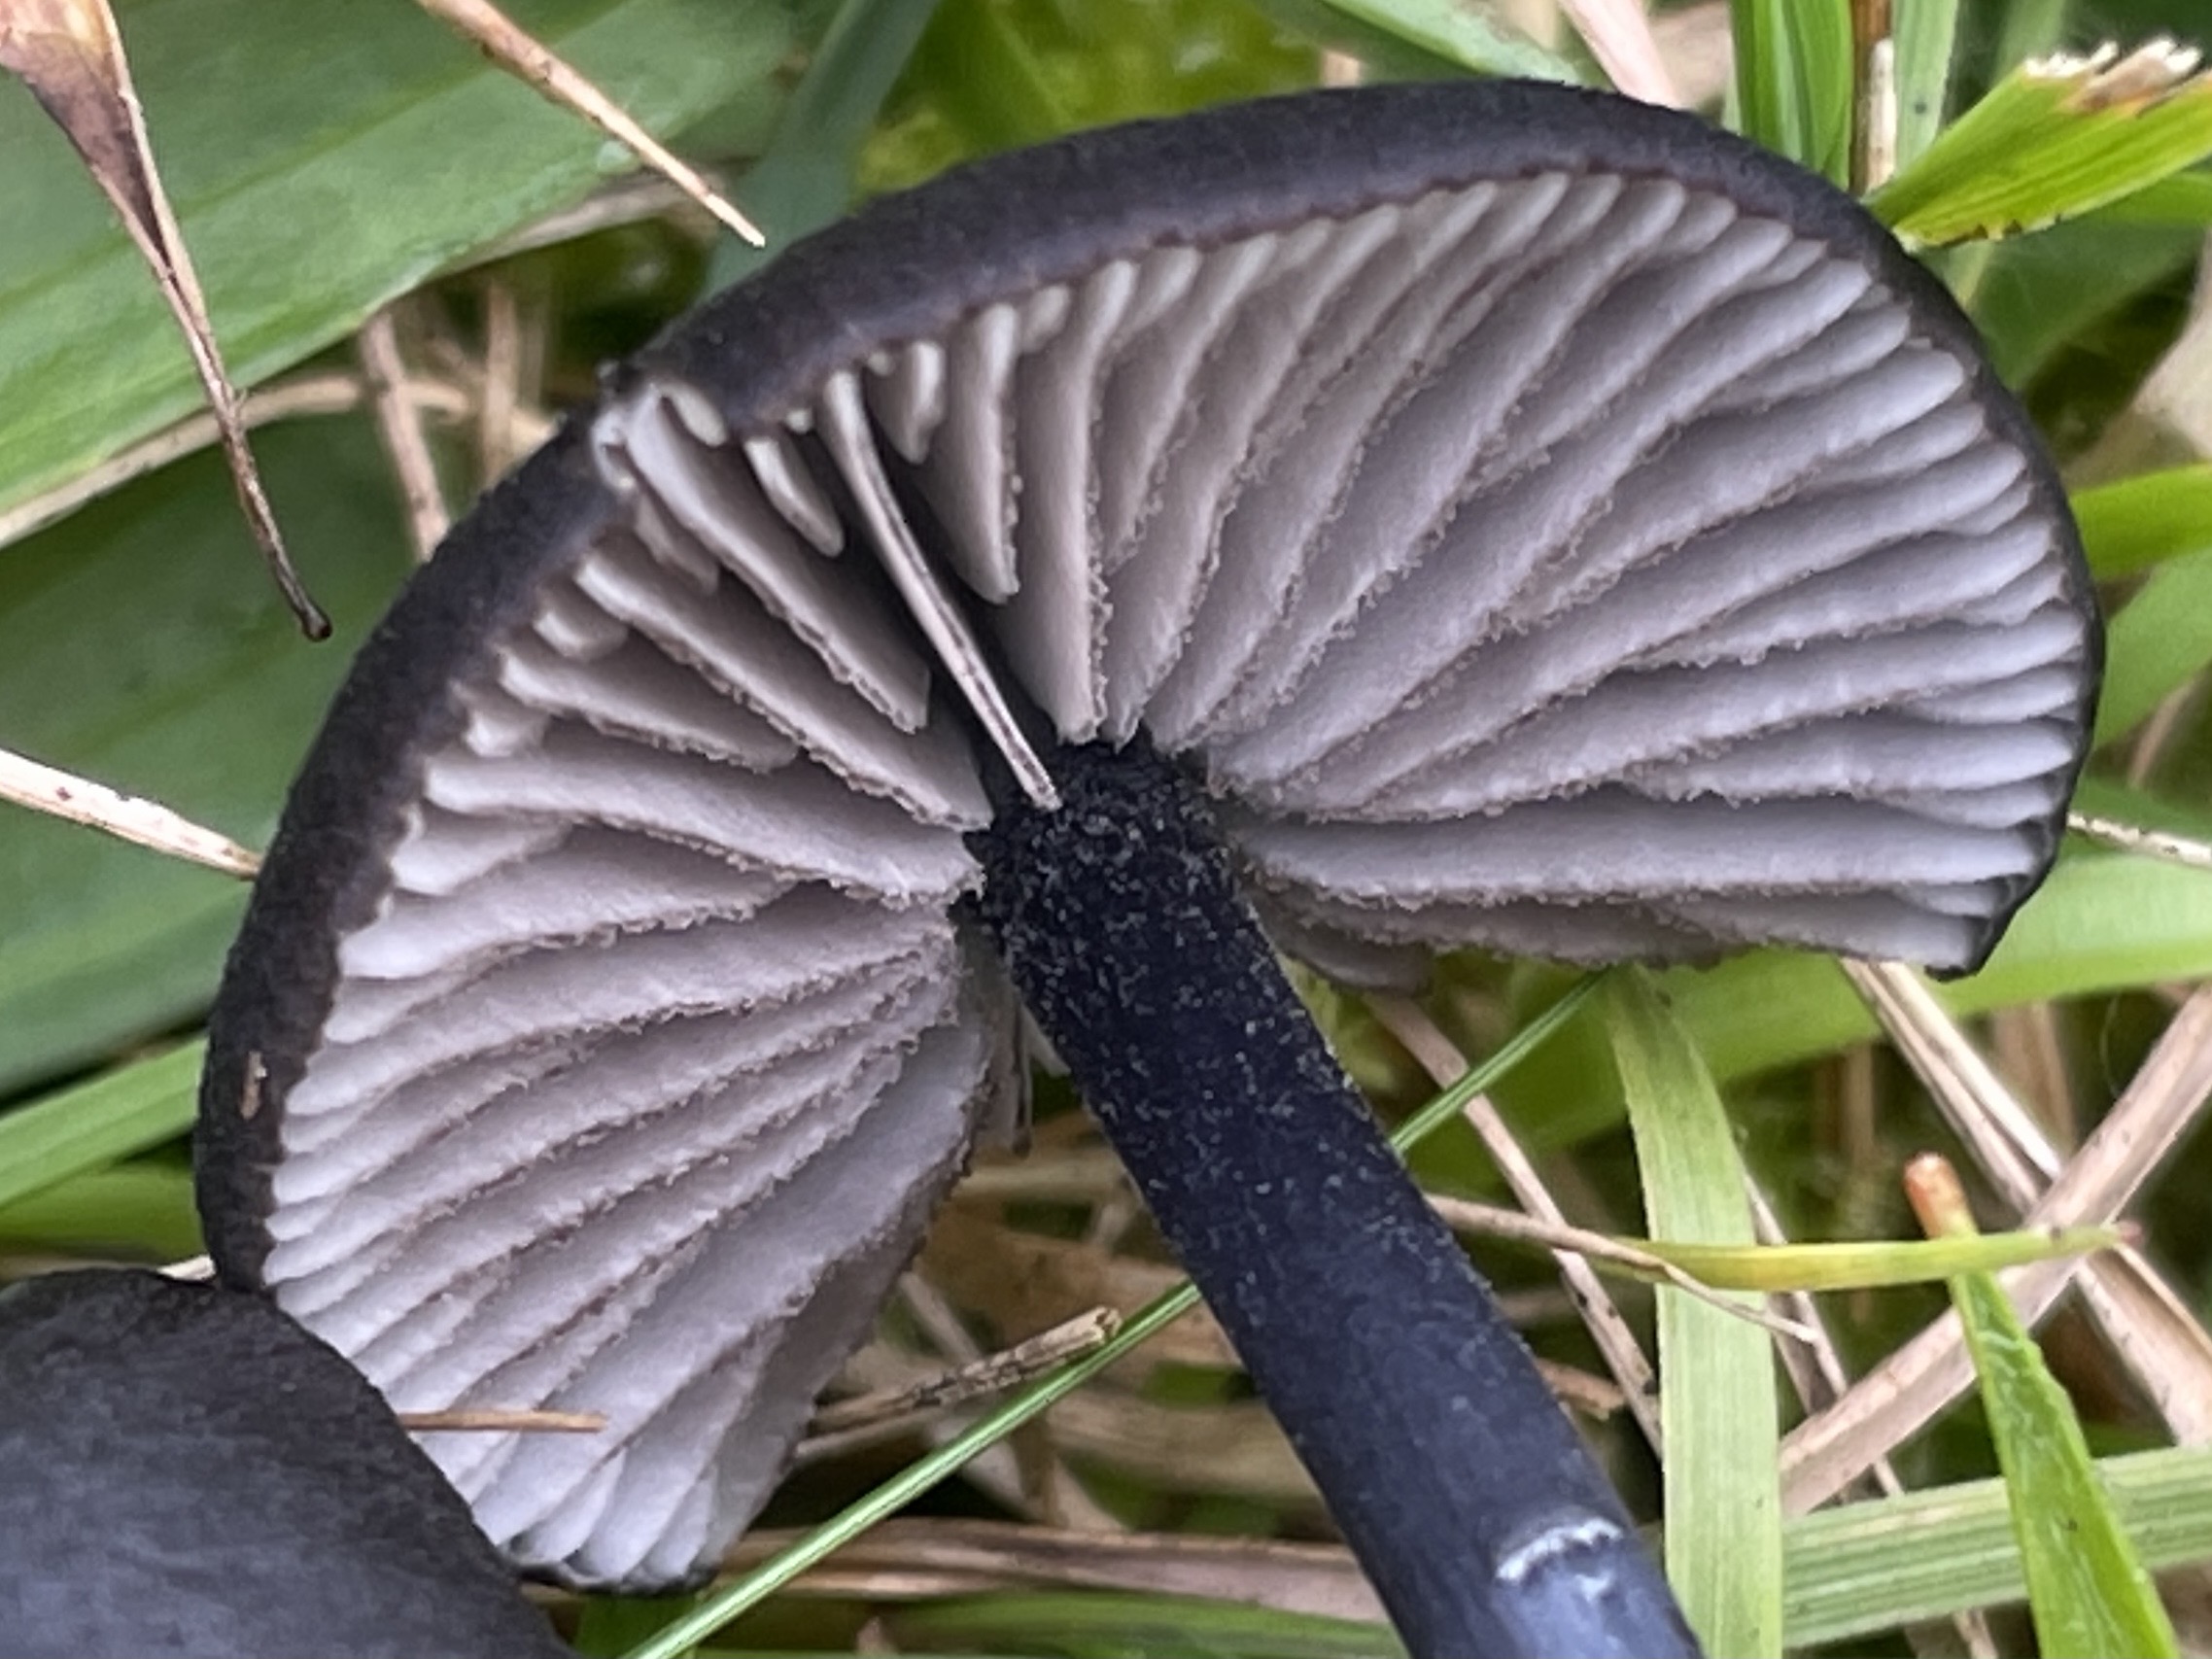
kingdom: Fungi
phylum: Basidiomycota
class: Agaricomycetes
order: Agaricales
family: Entolomataceae
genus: Entoloma
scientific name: Entoloma
